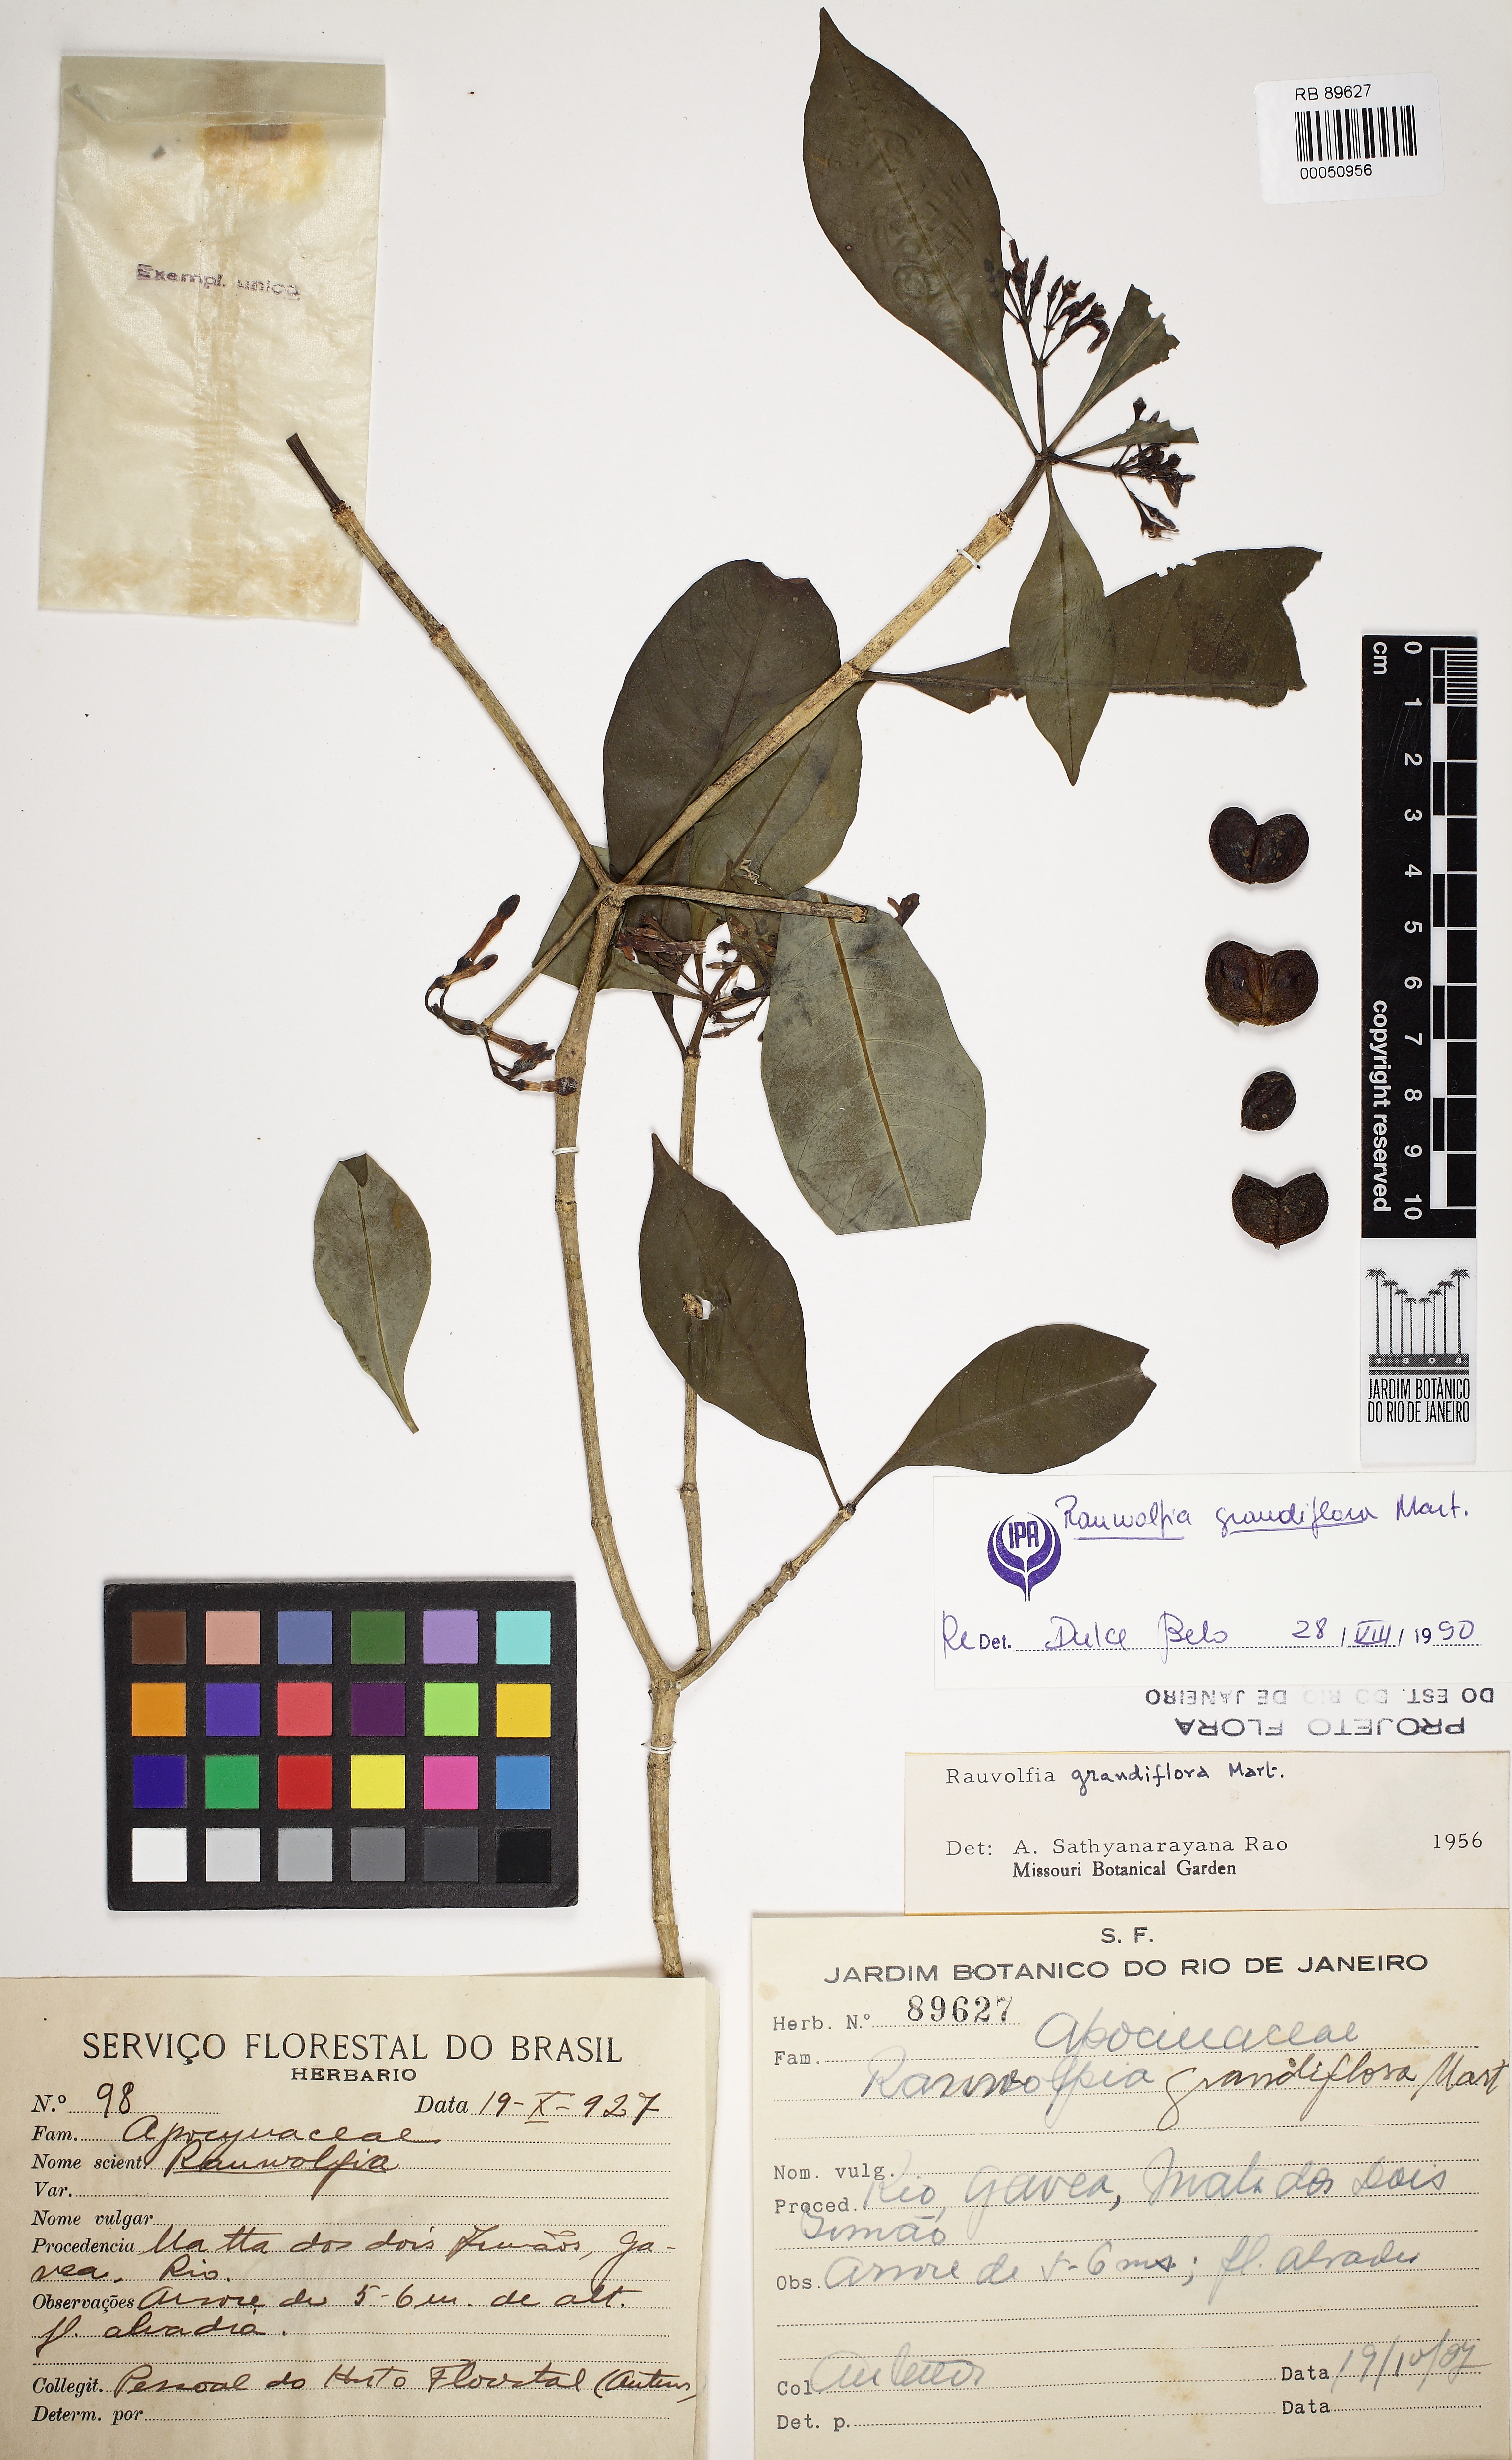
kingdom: Plantae
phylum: Tracheophyta
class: Magnoliopsida
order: Gentianales
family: Apocynaceae
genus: Rauvolfia
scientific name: Rauvolfia grandiflora
